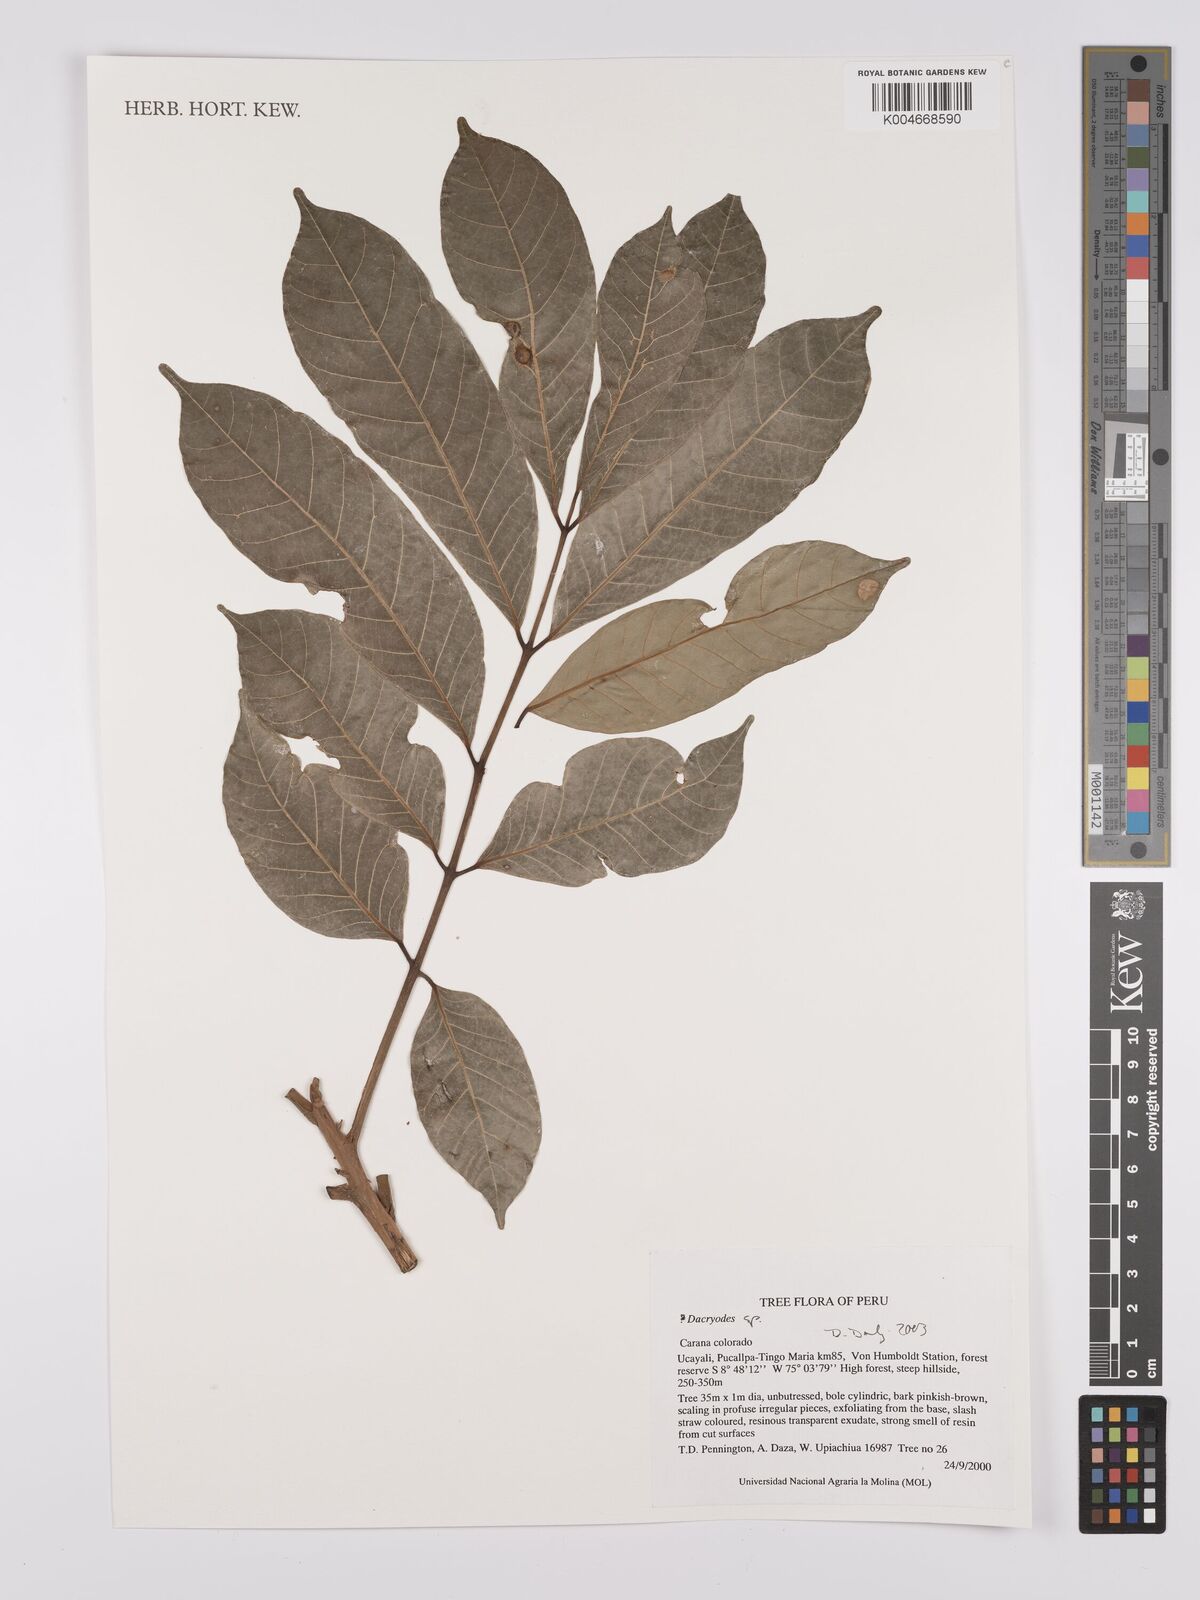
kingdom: Plantae
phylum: Tracheophyta
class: Magnoliopsida
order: Sapindales
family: Burseraceae
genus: Dacryodes
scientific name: Dacryodes
